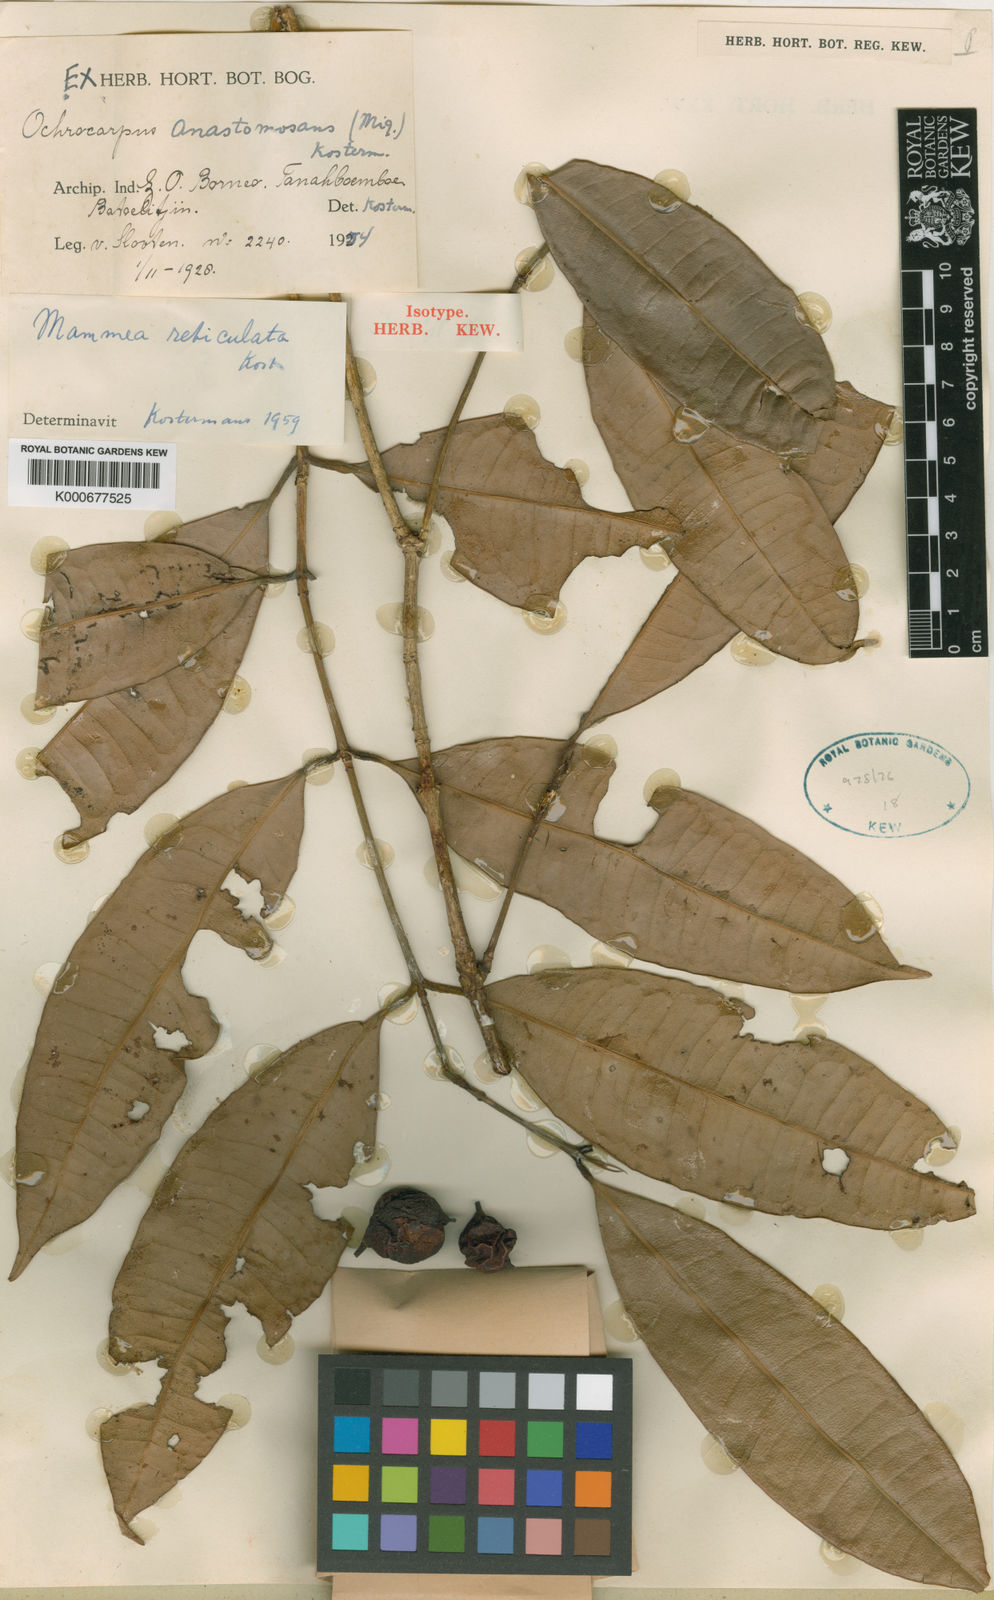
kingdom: Plantae
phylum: Tracheophyta
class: Magnoliopsida
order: Malpighiales
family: Calophyllaceae
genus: Mammea
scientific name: Mammea reticulata
